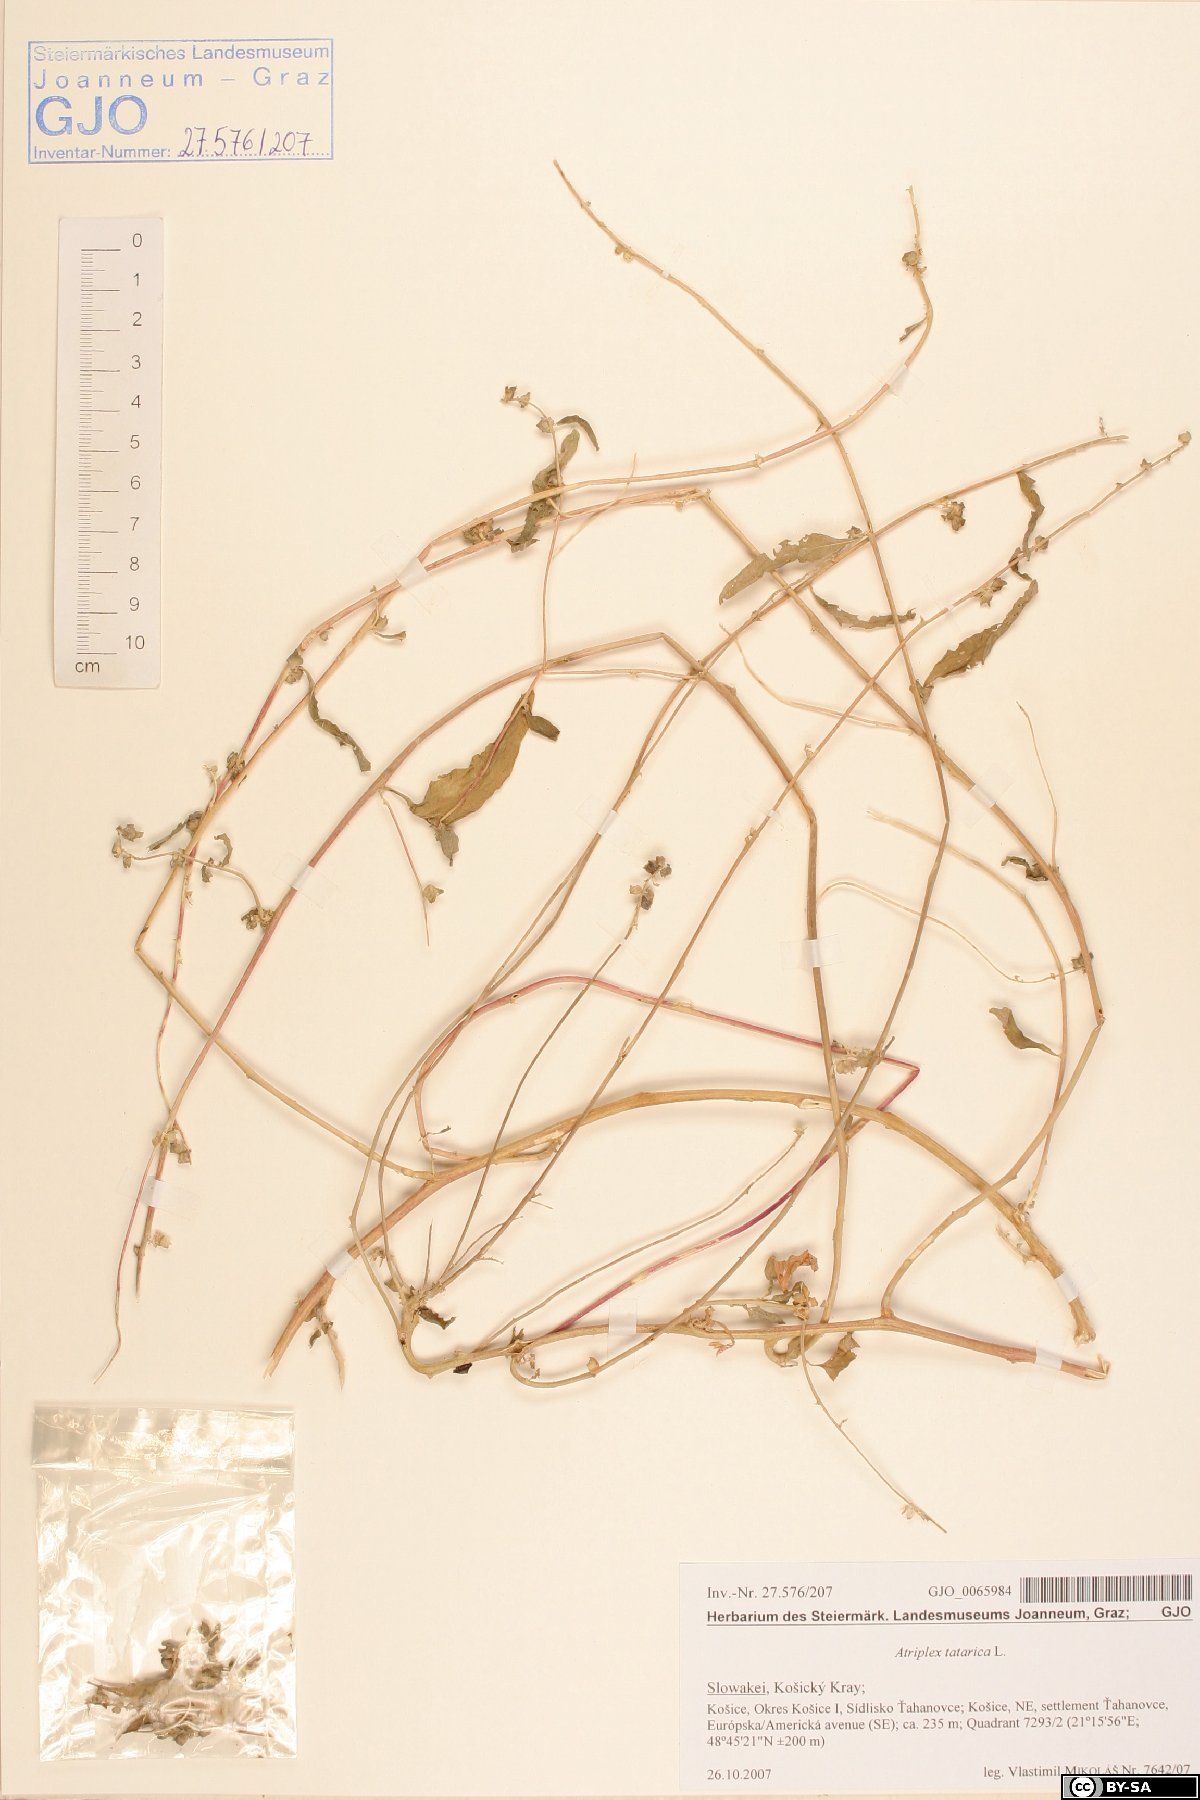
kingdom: Plantae
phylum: Tracheophyta
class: Magnoliopsida
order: Caryophyllales
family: Amaranthaceae
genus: Atriplex
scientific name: Atriplex tatarica
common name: Tatarian orache
